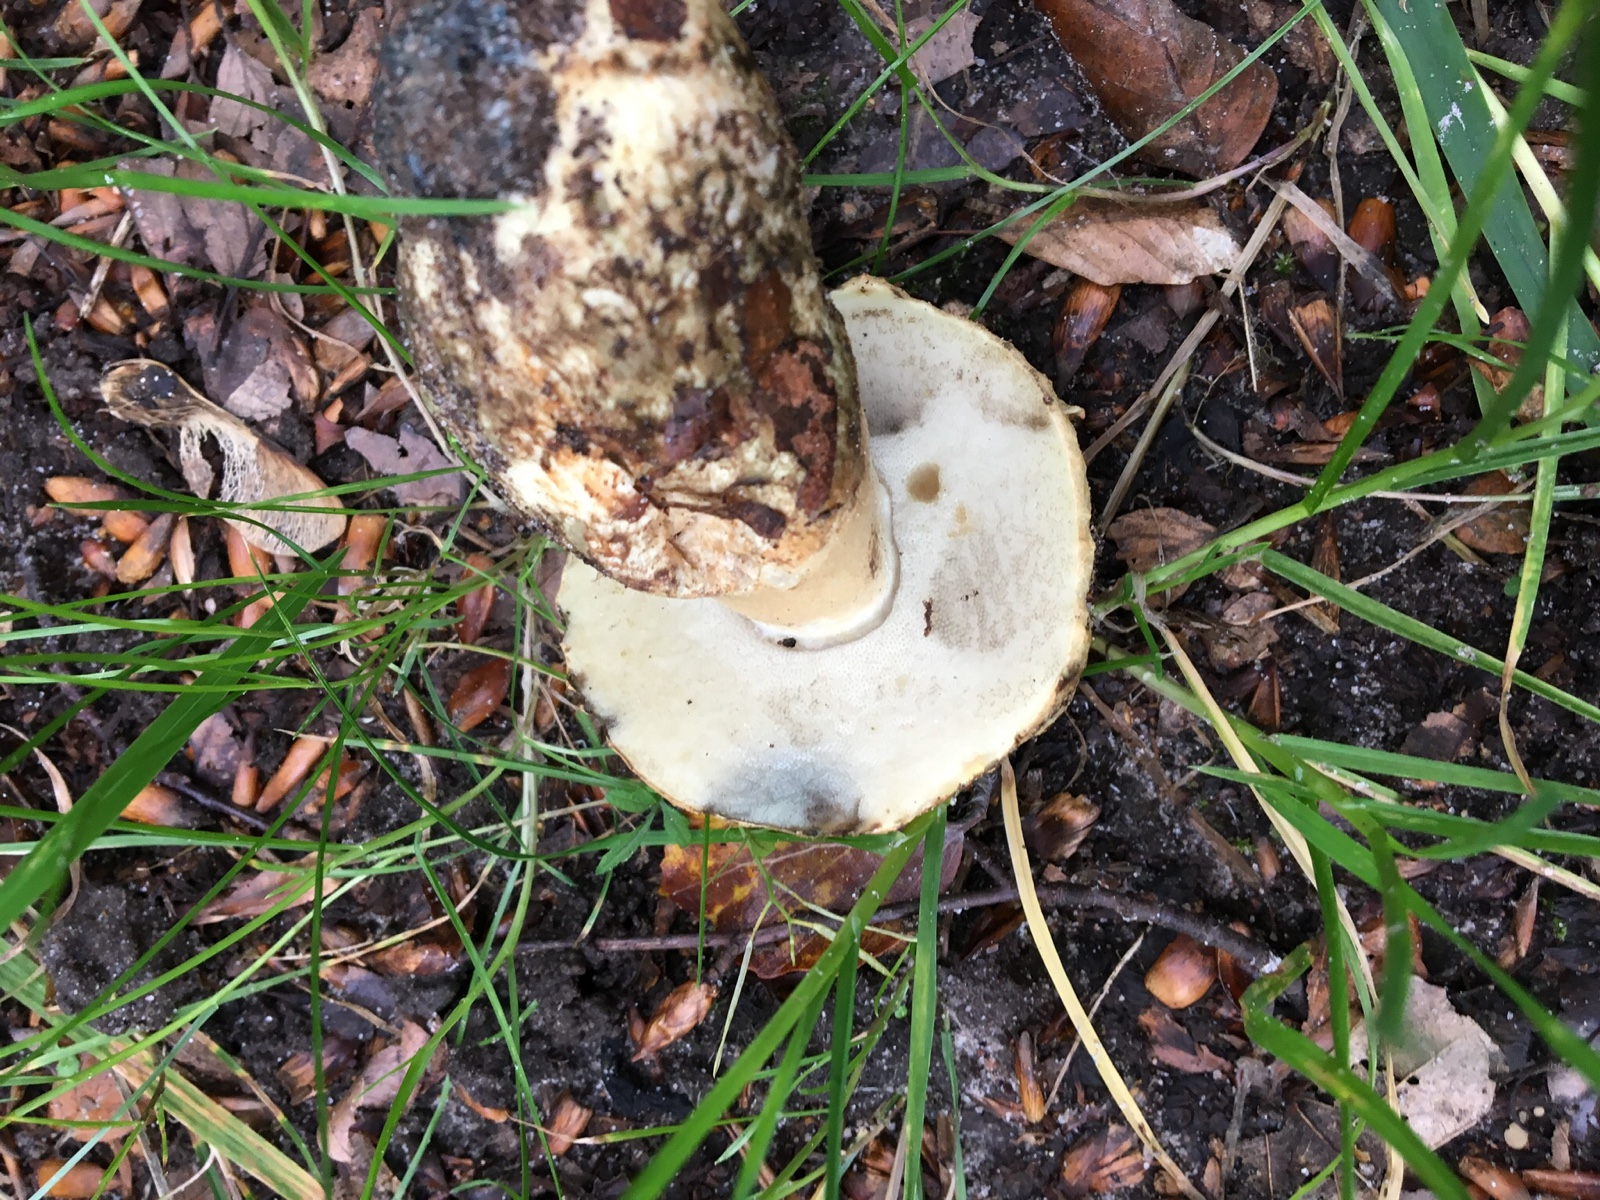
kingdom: Fungi
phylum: Basidiomycota
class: Agaricomycetes
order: Boletales
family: Gyroporaceae
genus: Gyroporus
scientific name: Gyroporus cyanescens
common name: blånende kammerrørhat
